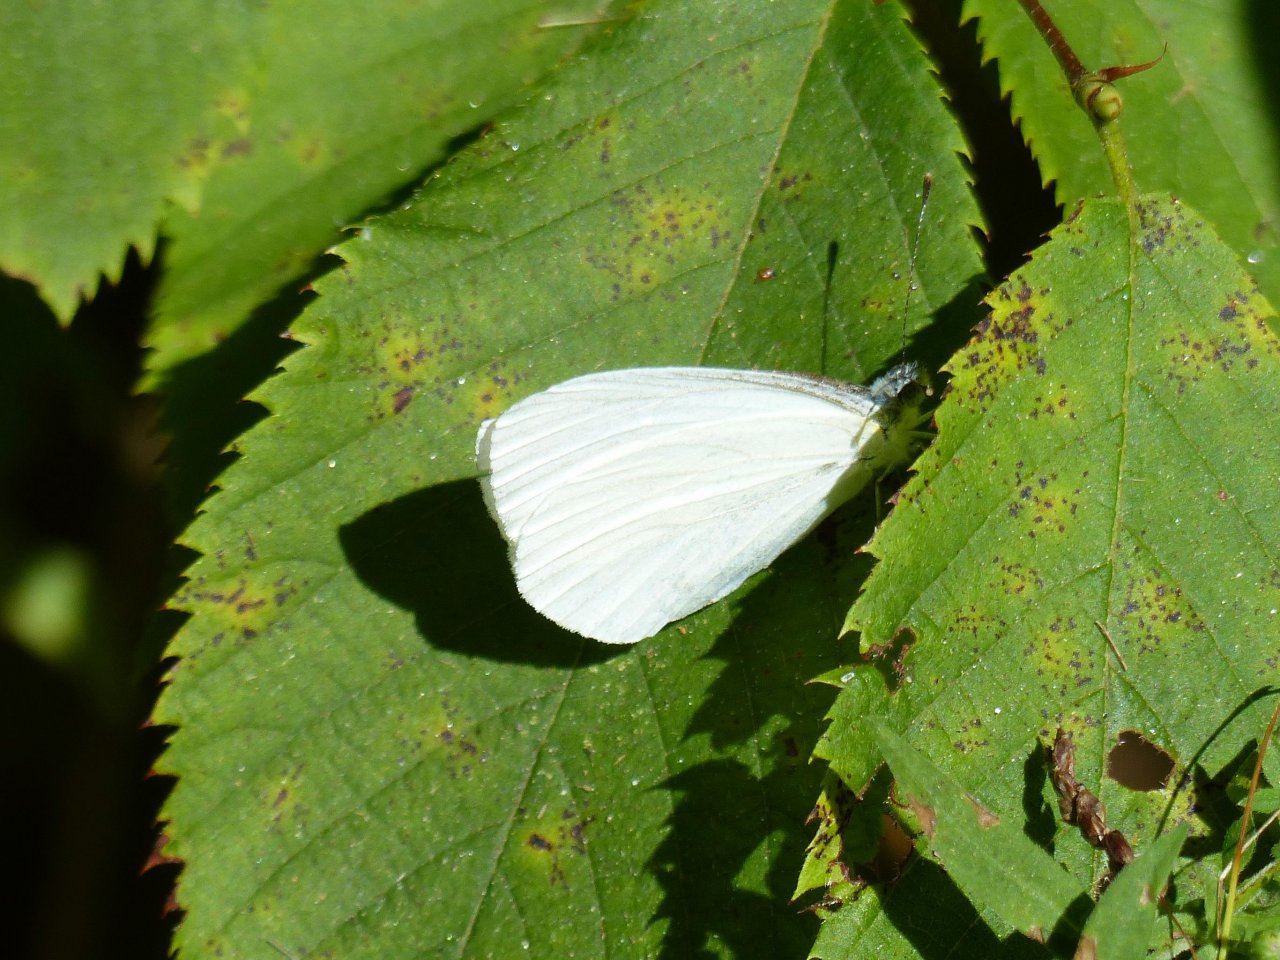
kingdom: Animalia
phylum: Arthropoda
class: Insecta
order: Lepidoptera
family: Pieridae
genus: Pieris
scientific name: Pieris oleracea
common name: Mustard White
